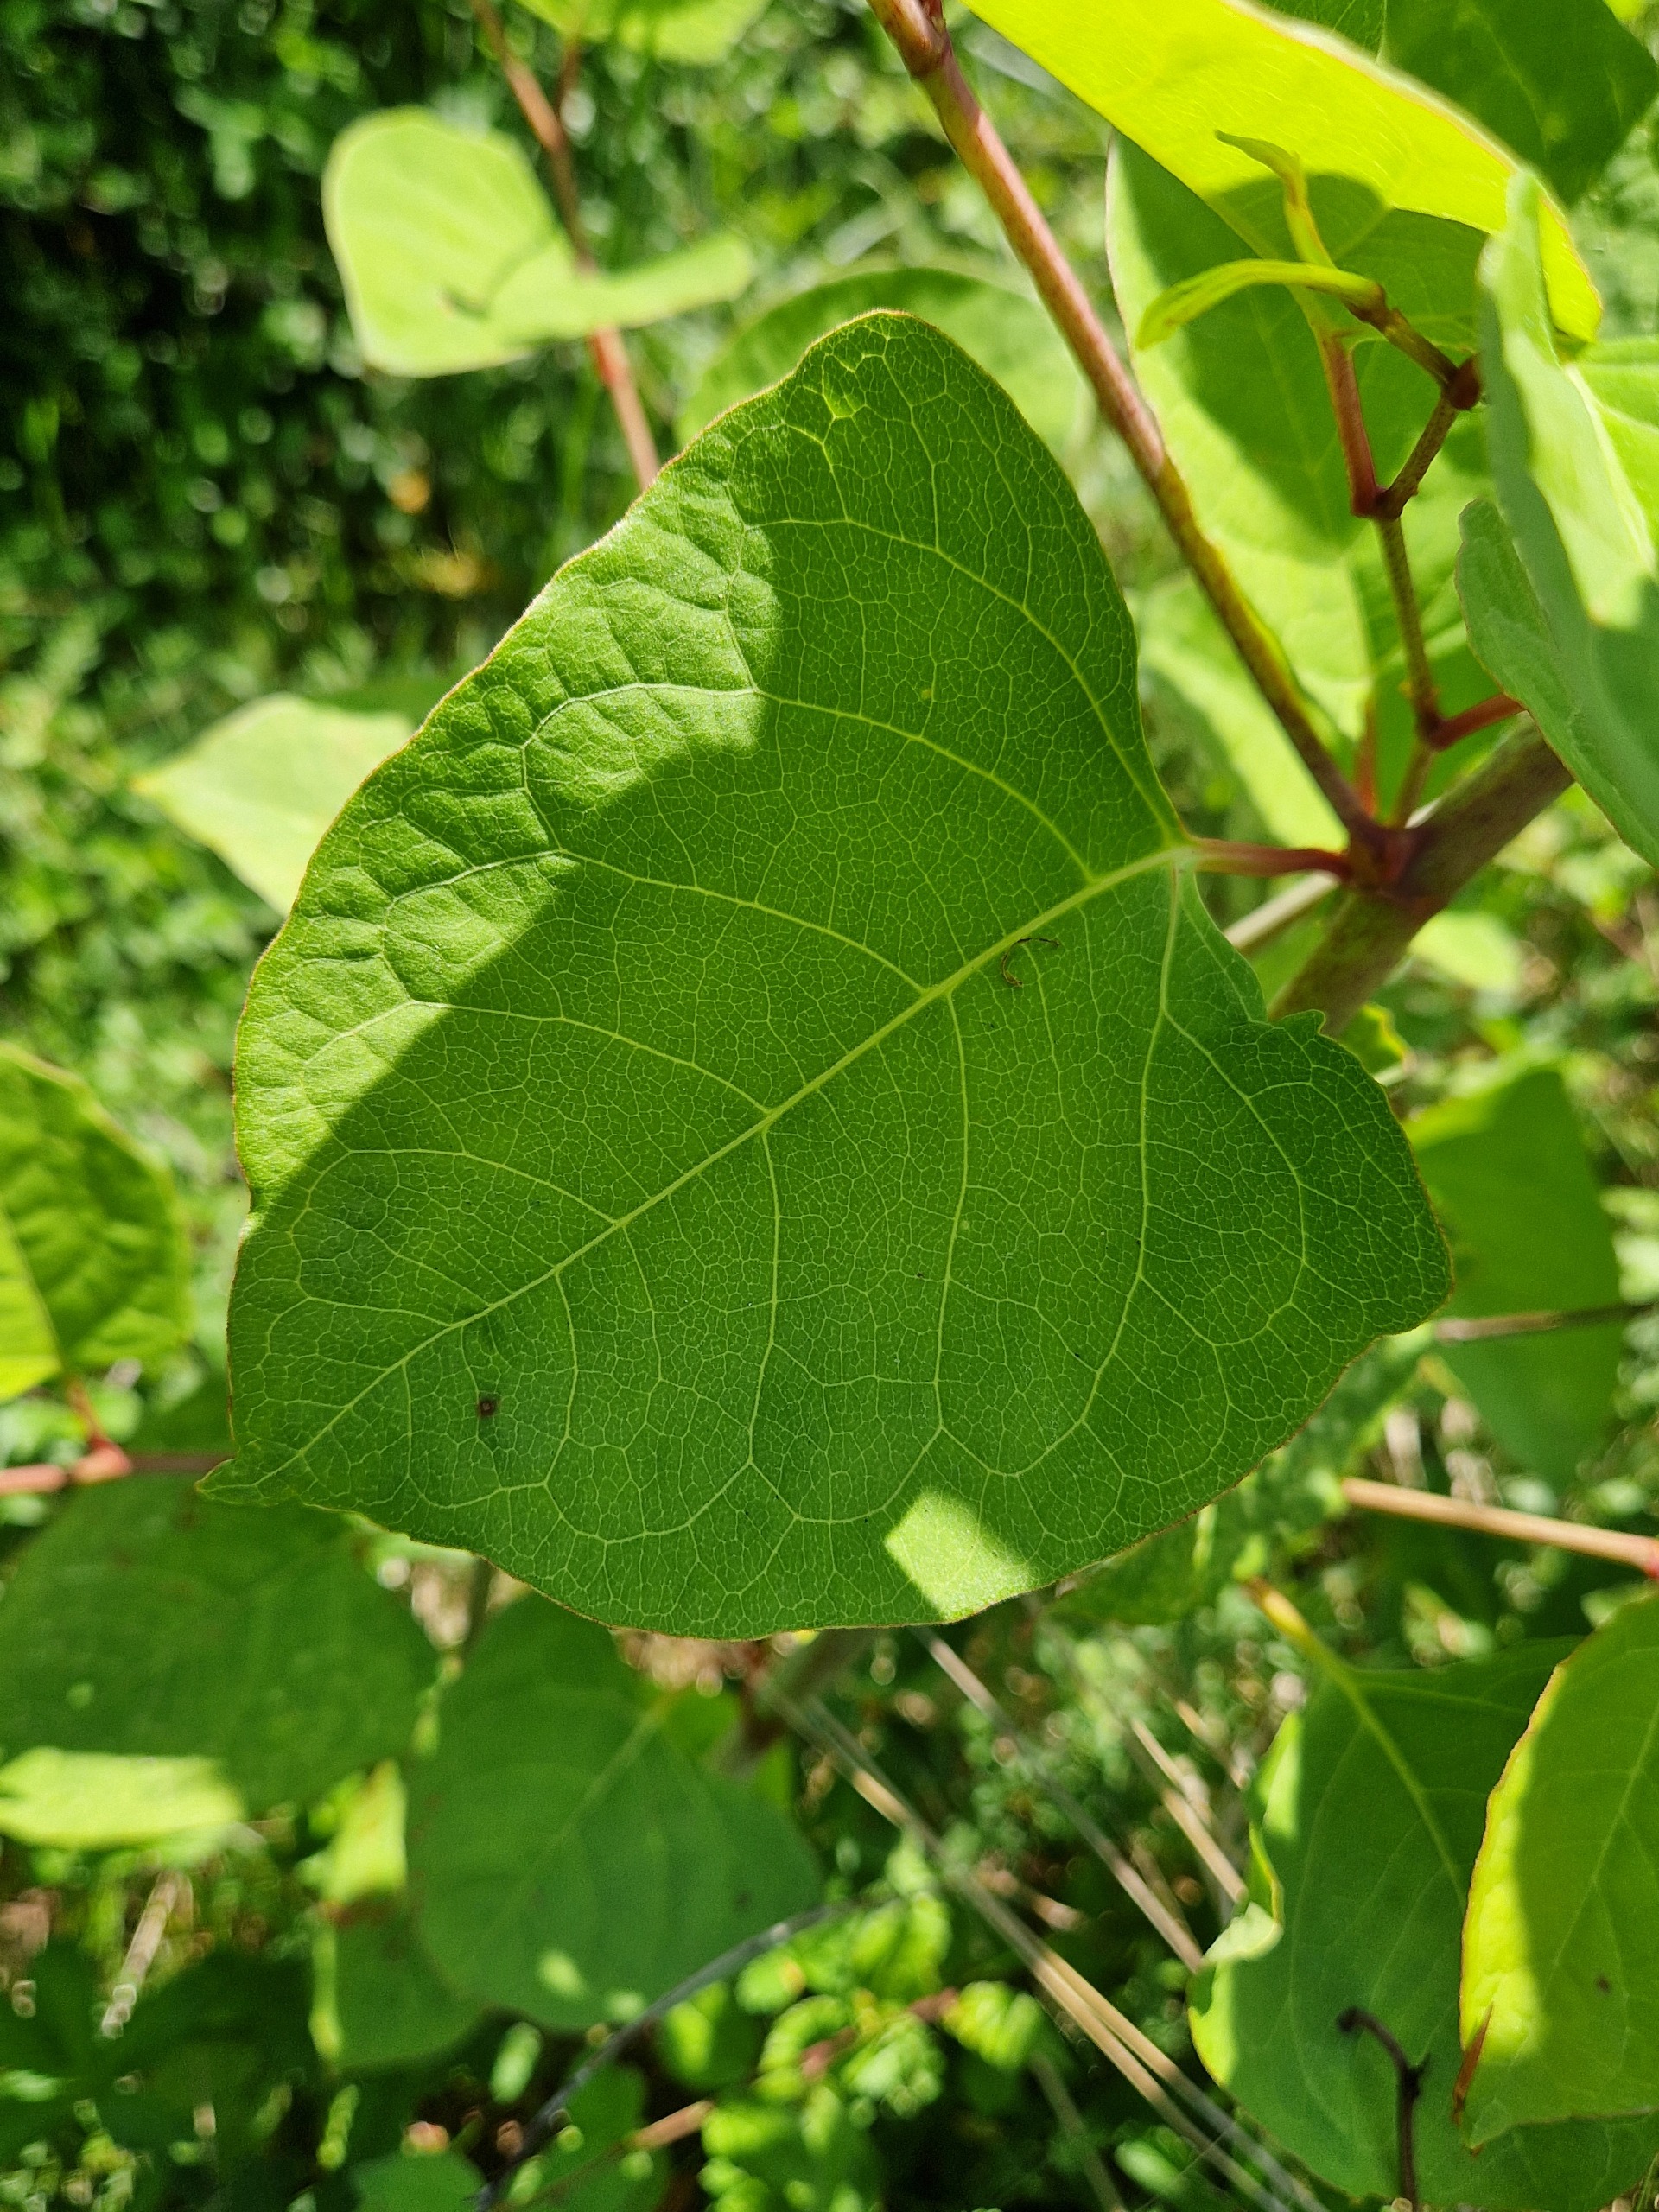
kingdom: Plantae
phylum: Tracheophyta
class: Magnoliopsida
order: Caryophyllales
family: Polygonaceae
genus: Reynoutria
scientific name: Reynoutria japonica
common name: Japan-pileurt
